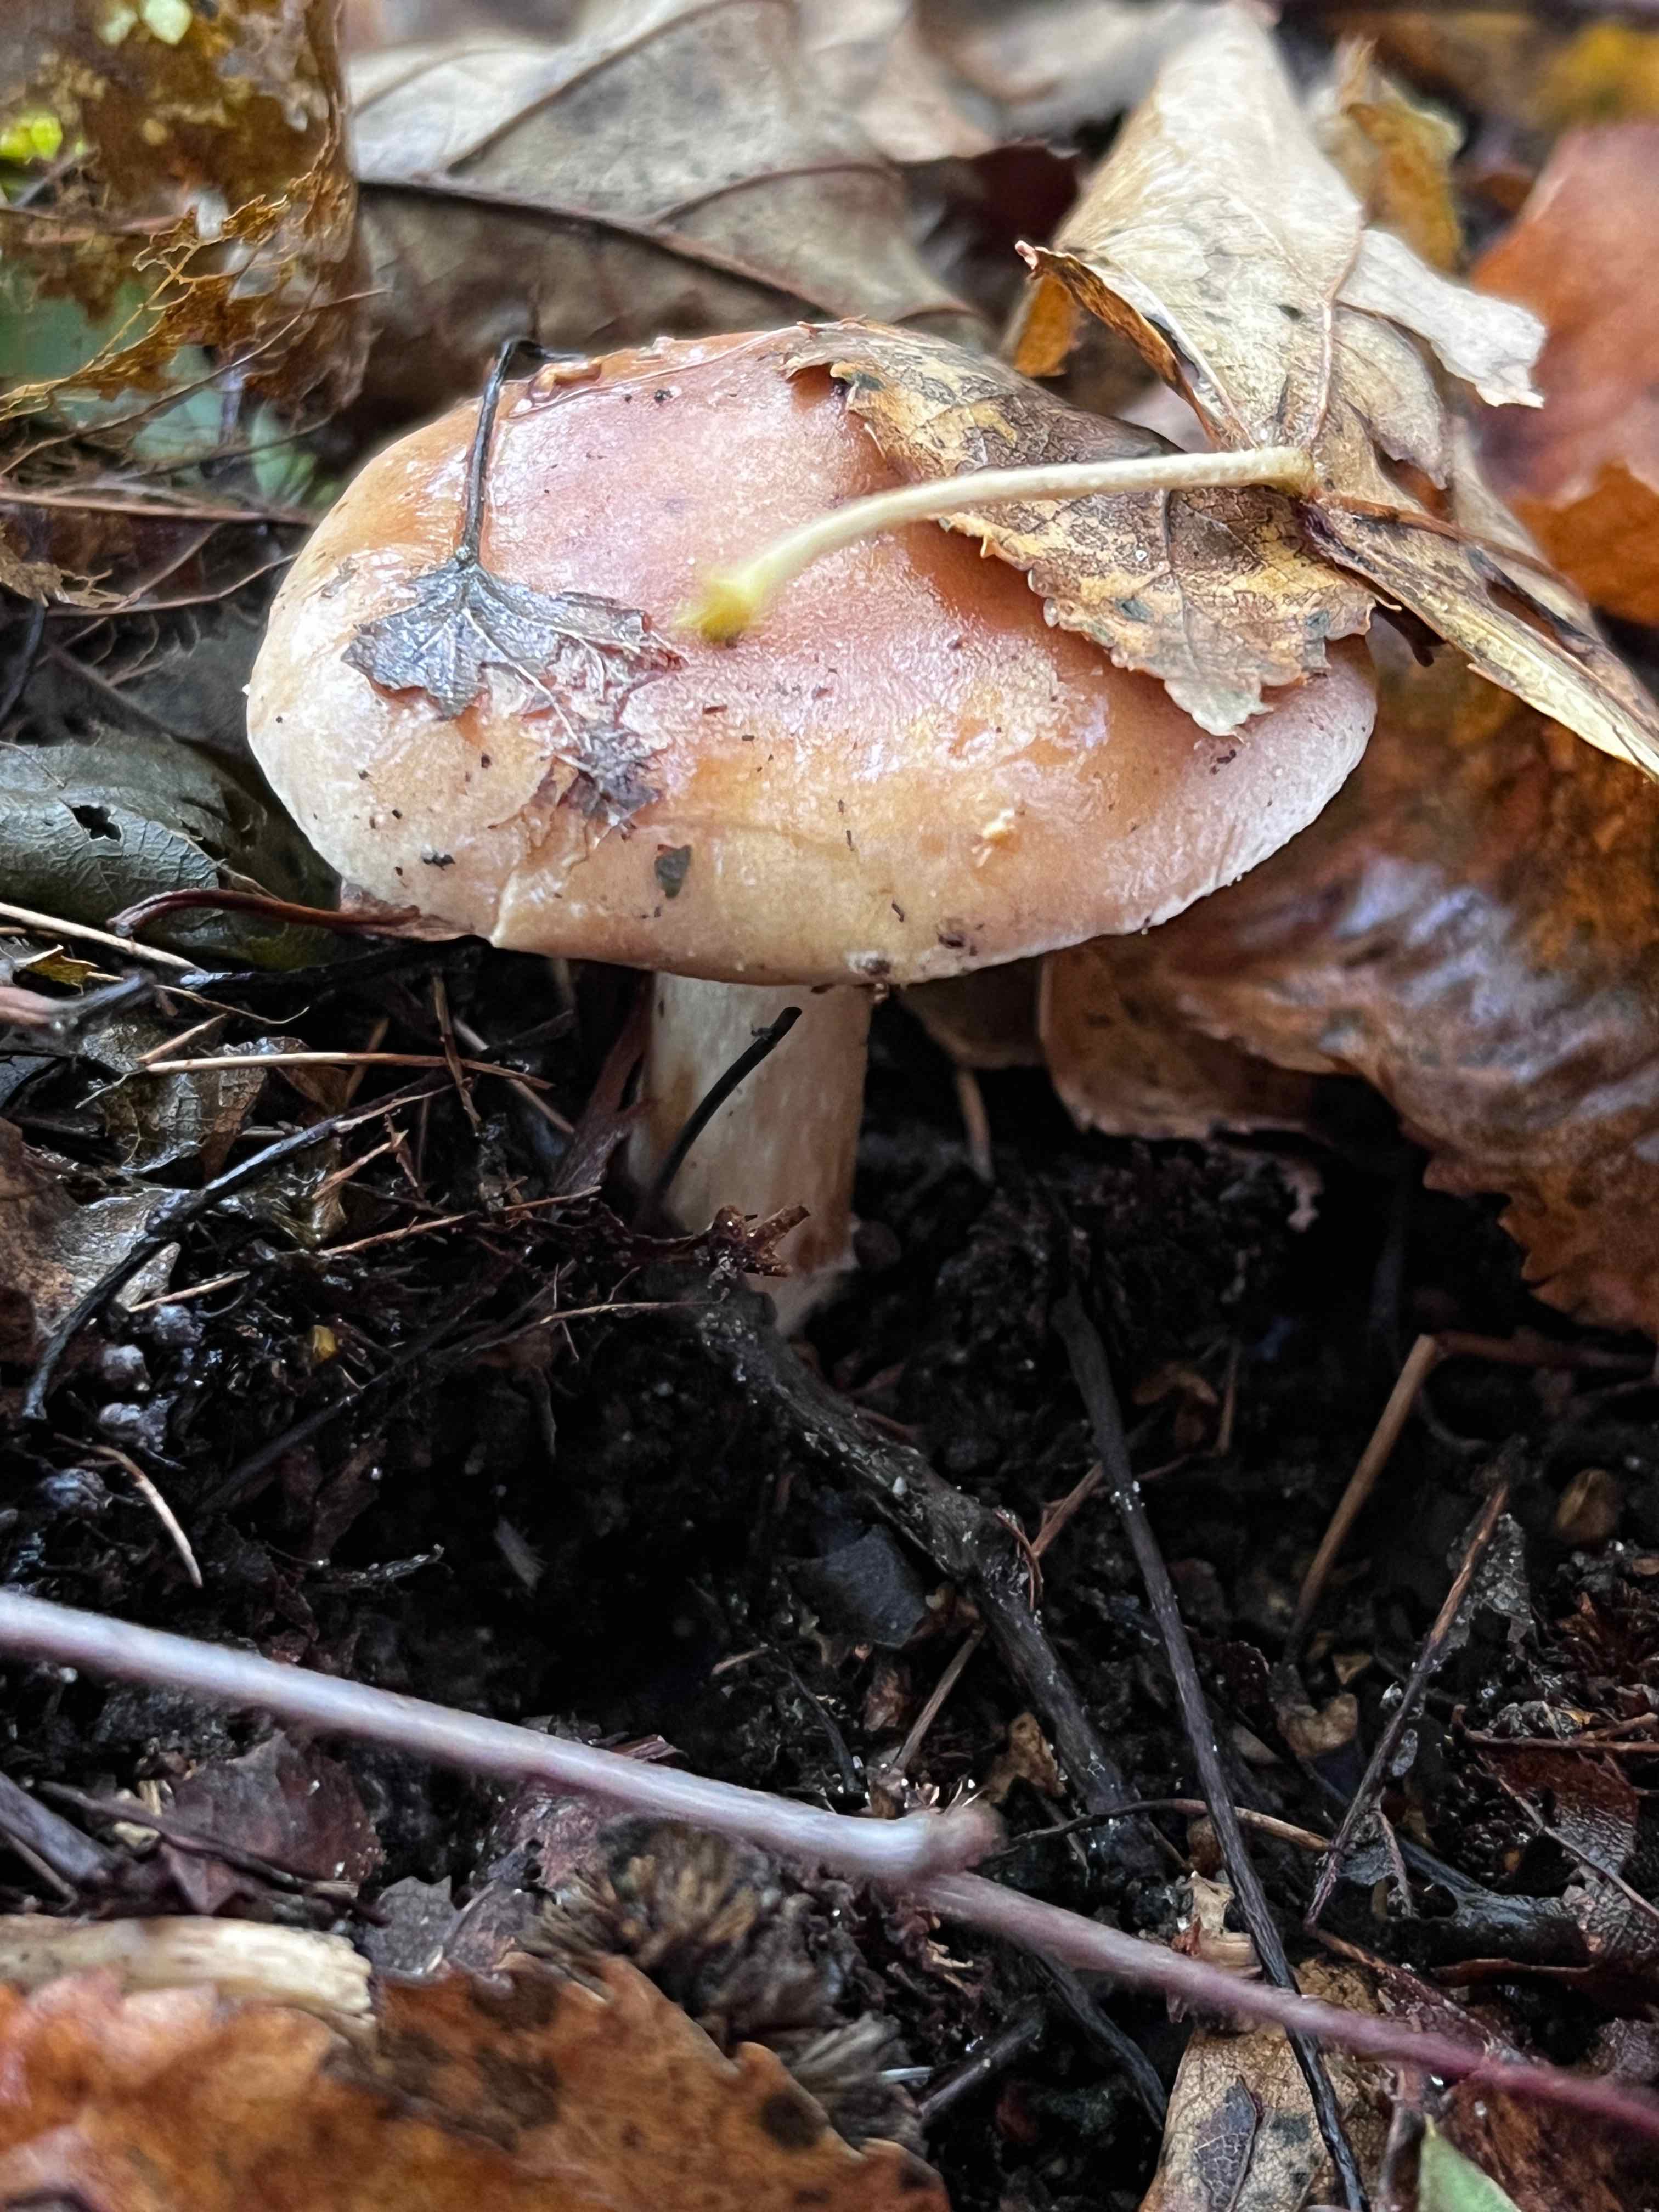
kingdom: Fungi
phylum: Basidiomycota
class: Agaricomycetes
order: Agaricales
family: Hymenogastraceae
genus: Hebeloma
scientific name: Hebeloma
